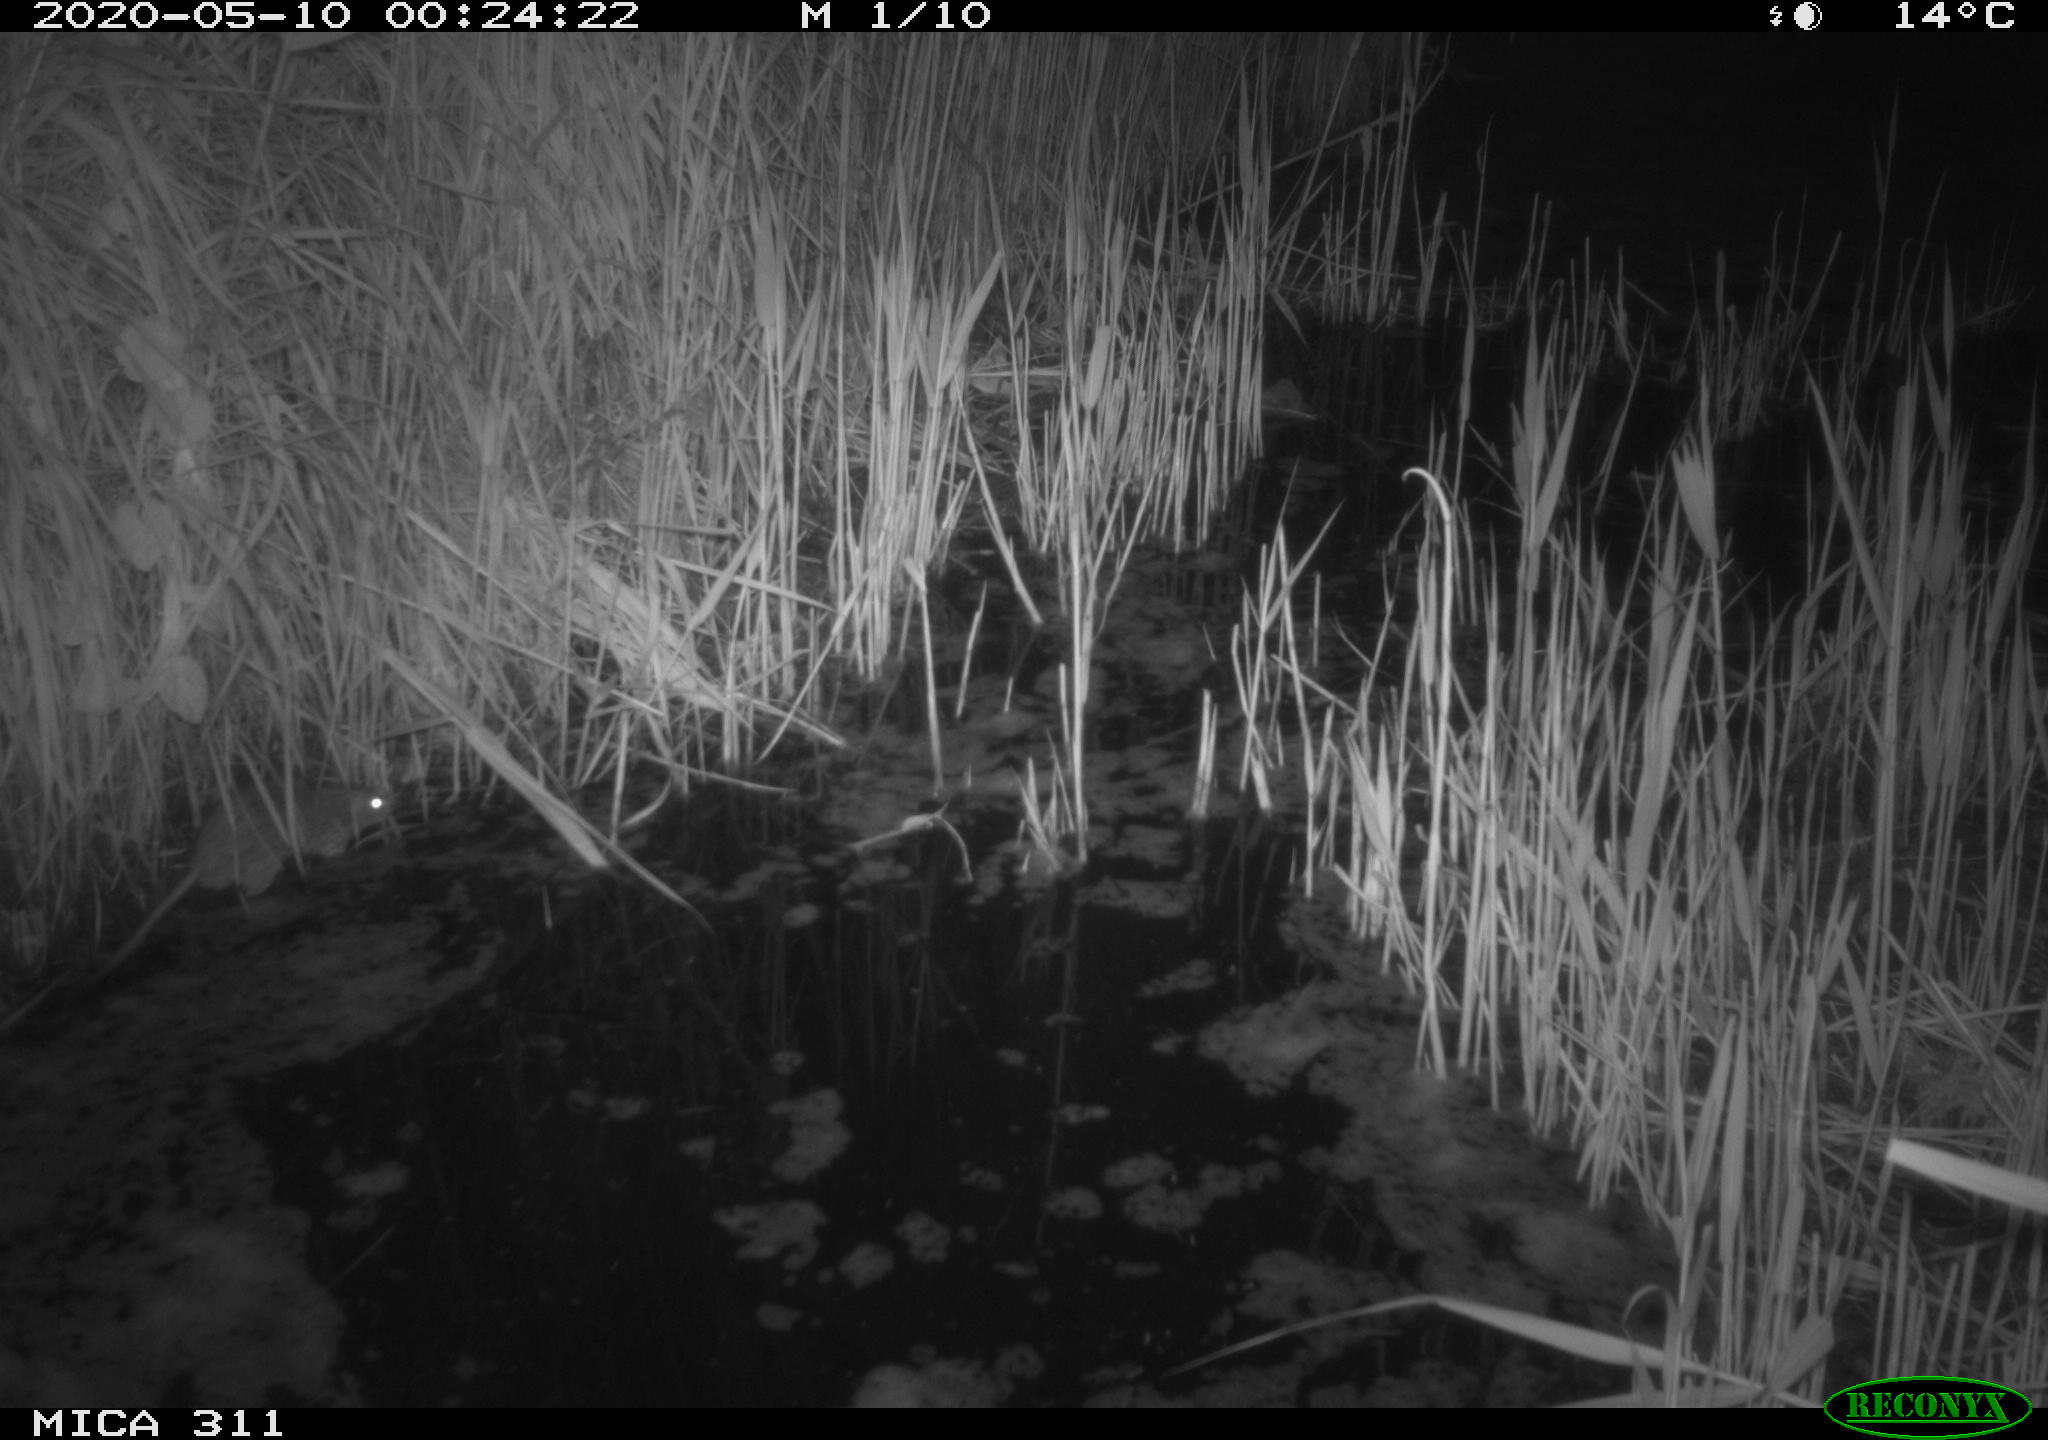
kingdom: Animalia
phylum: Chordata
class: Mammalia
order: Rodentia
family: Muridae
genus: Rattus
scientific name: Rattus norvegicus
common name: Brown rat
